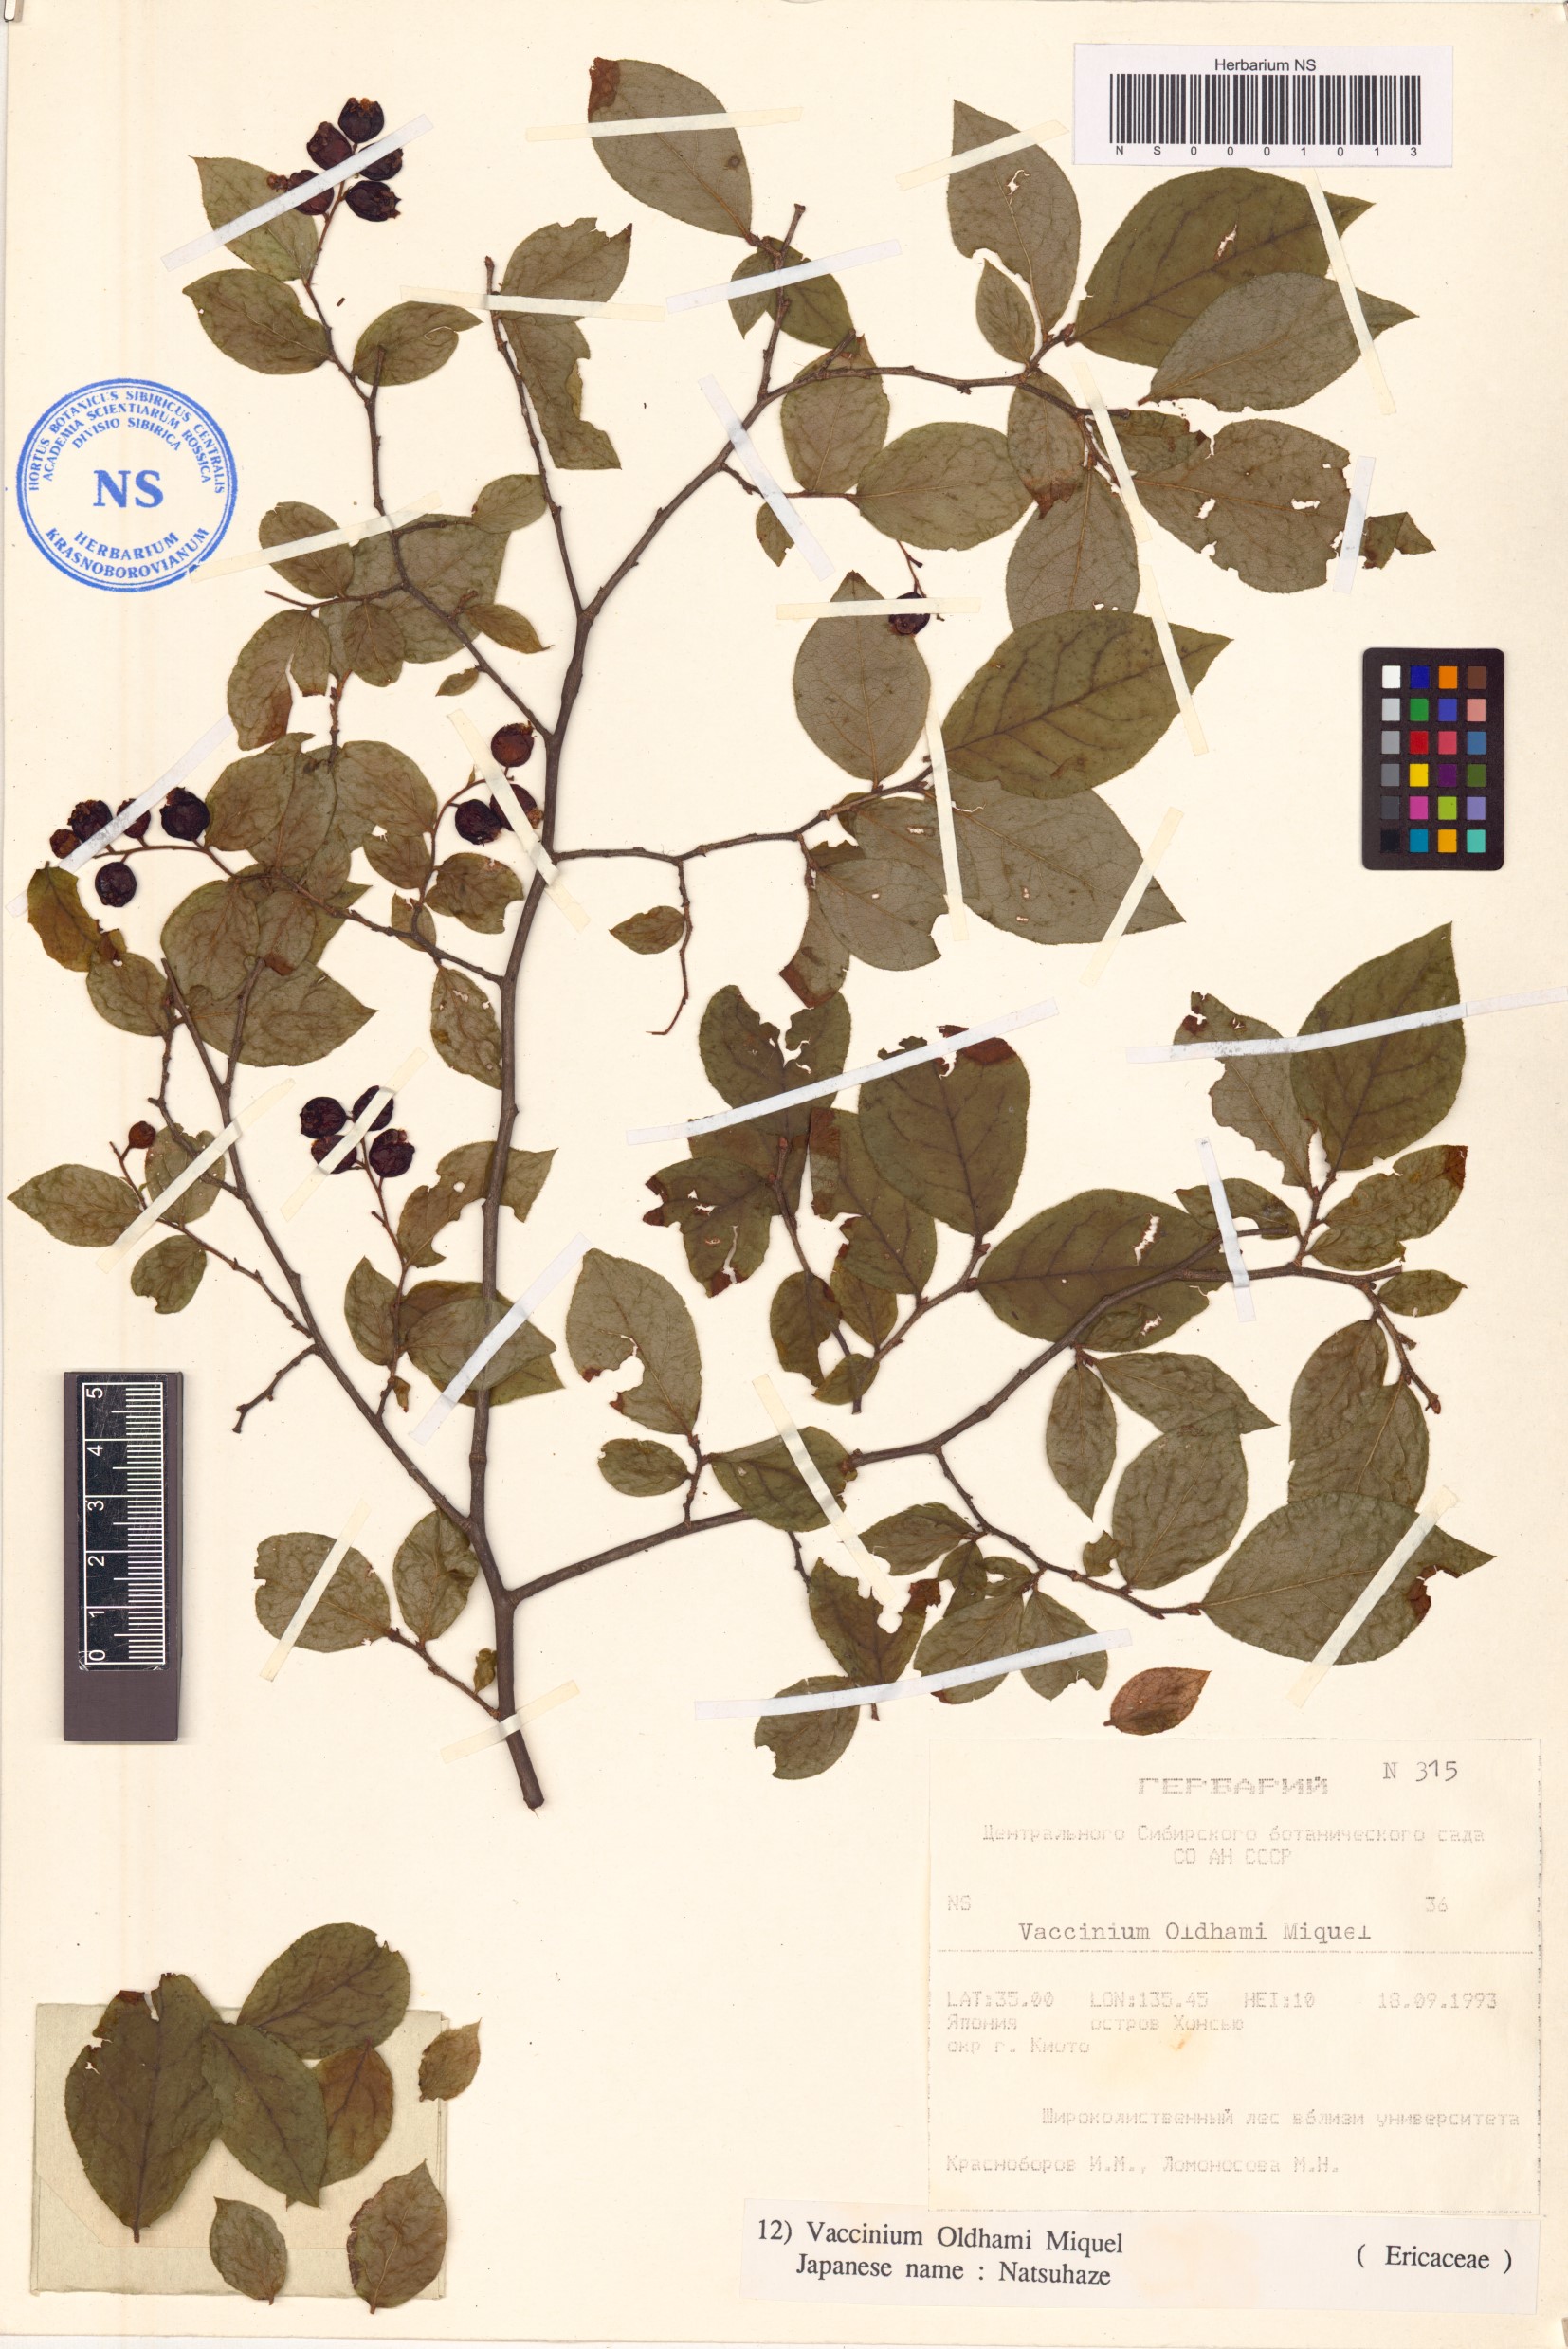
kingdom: Plantae
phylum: Tracheophyta
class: Magnoliopsida
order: Ericales
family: Ericaceae
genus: Vaccinium
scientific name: Vaccinium oldhamii
